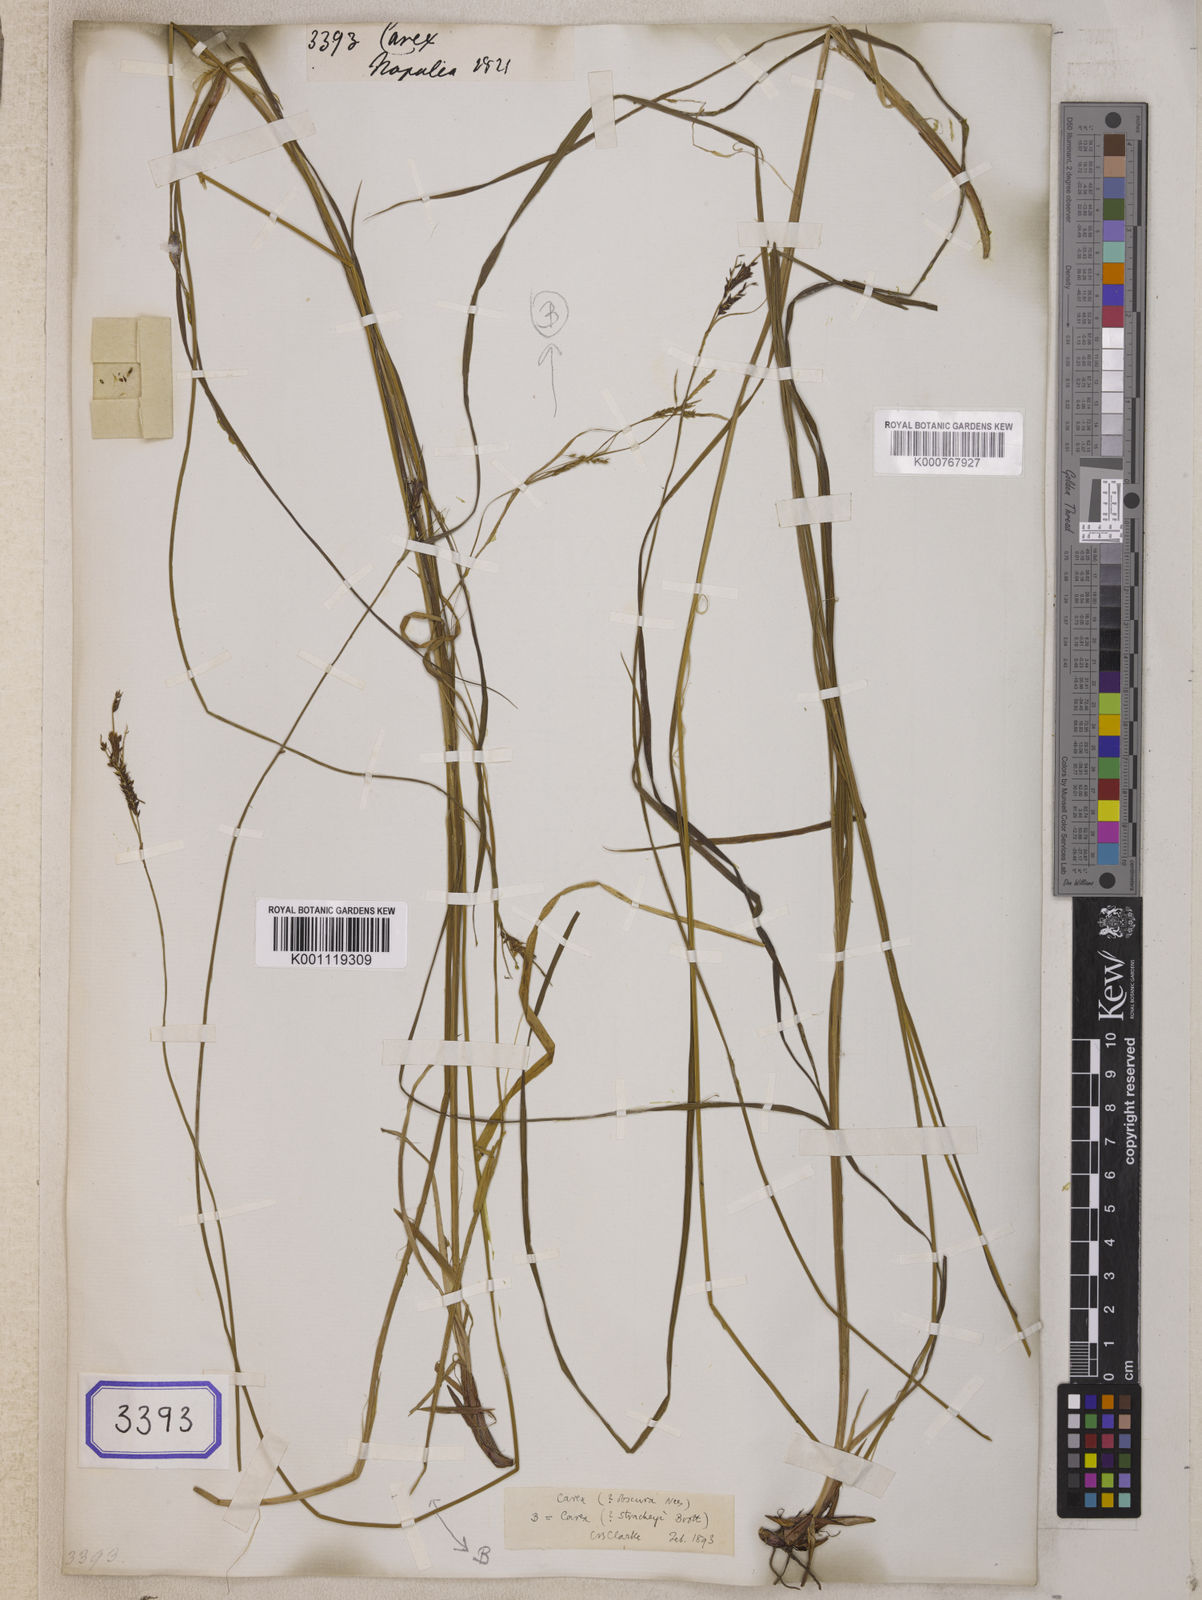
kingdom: Plantae
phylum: Tracheophyta
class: Liliopsida
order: Poales
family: Cyperaceae
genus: Carex
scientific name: Carex
